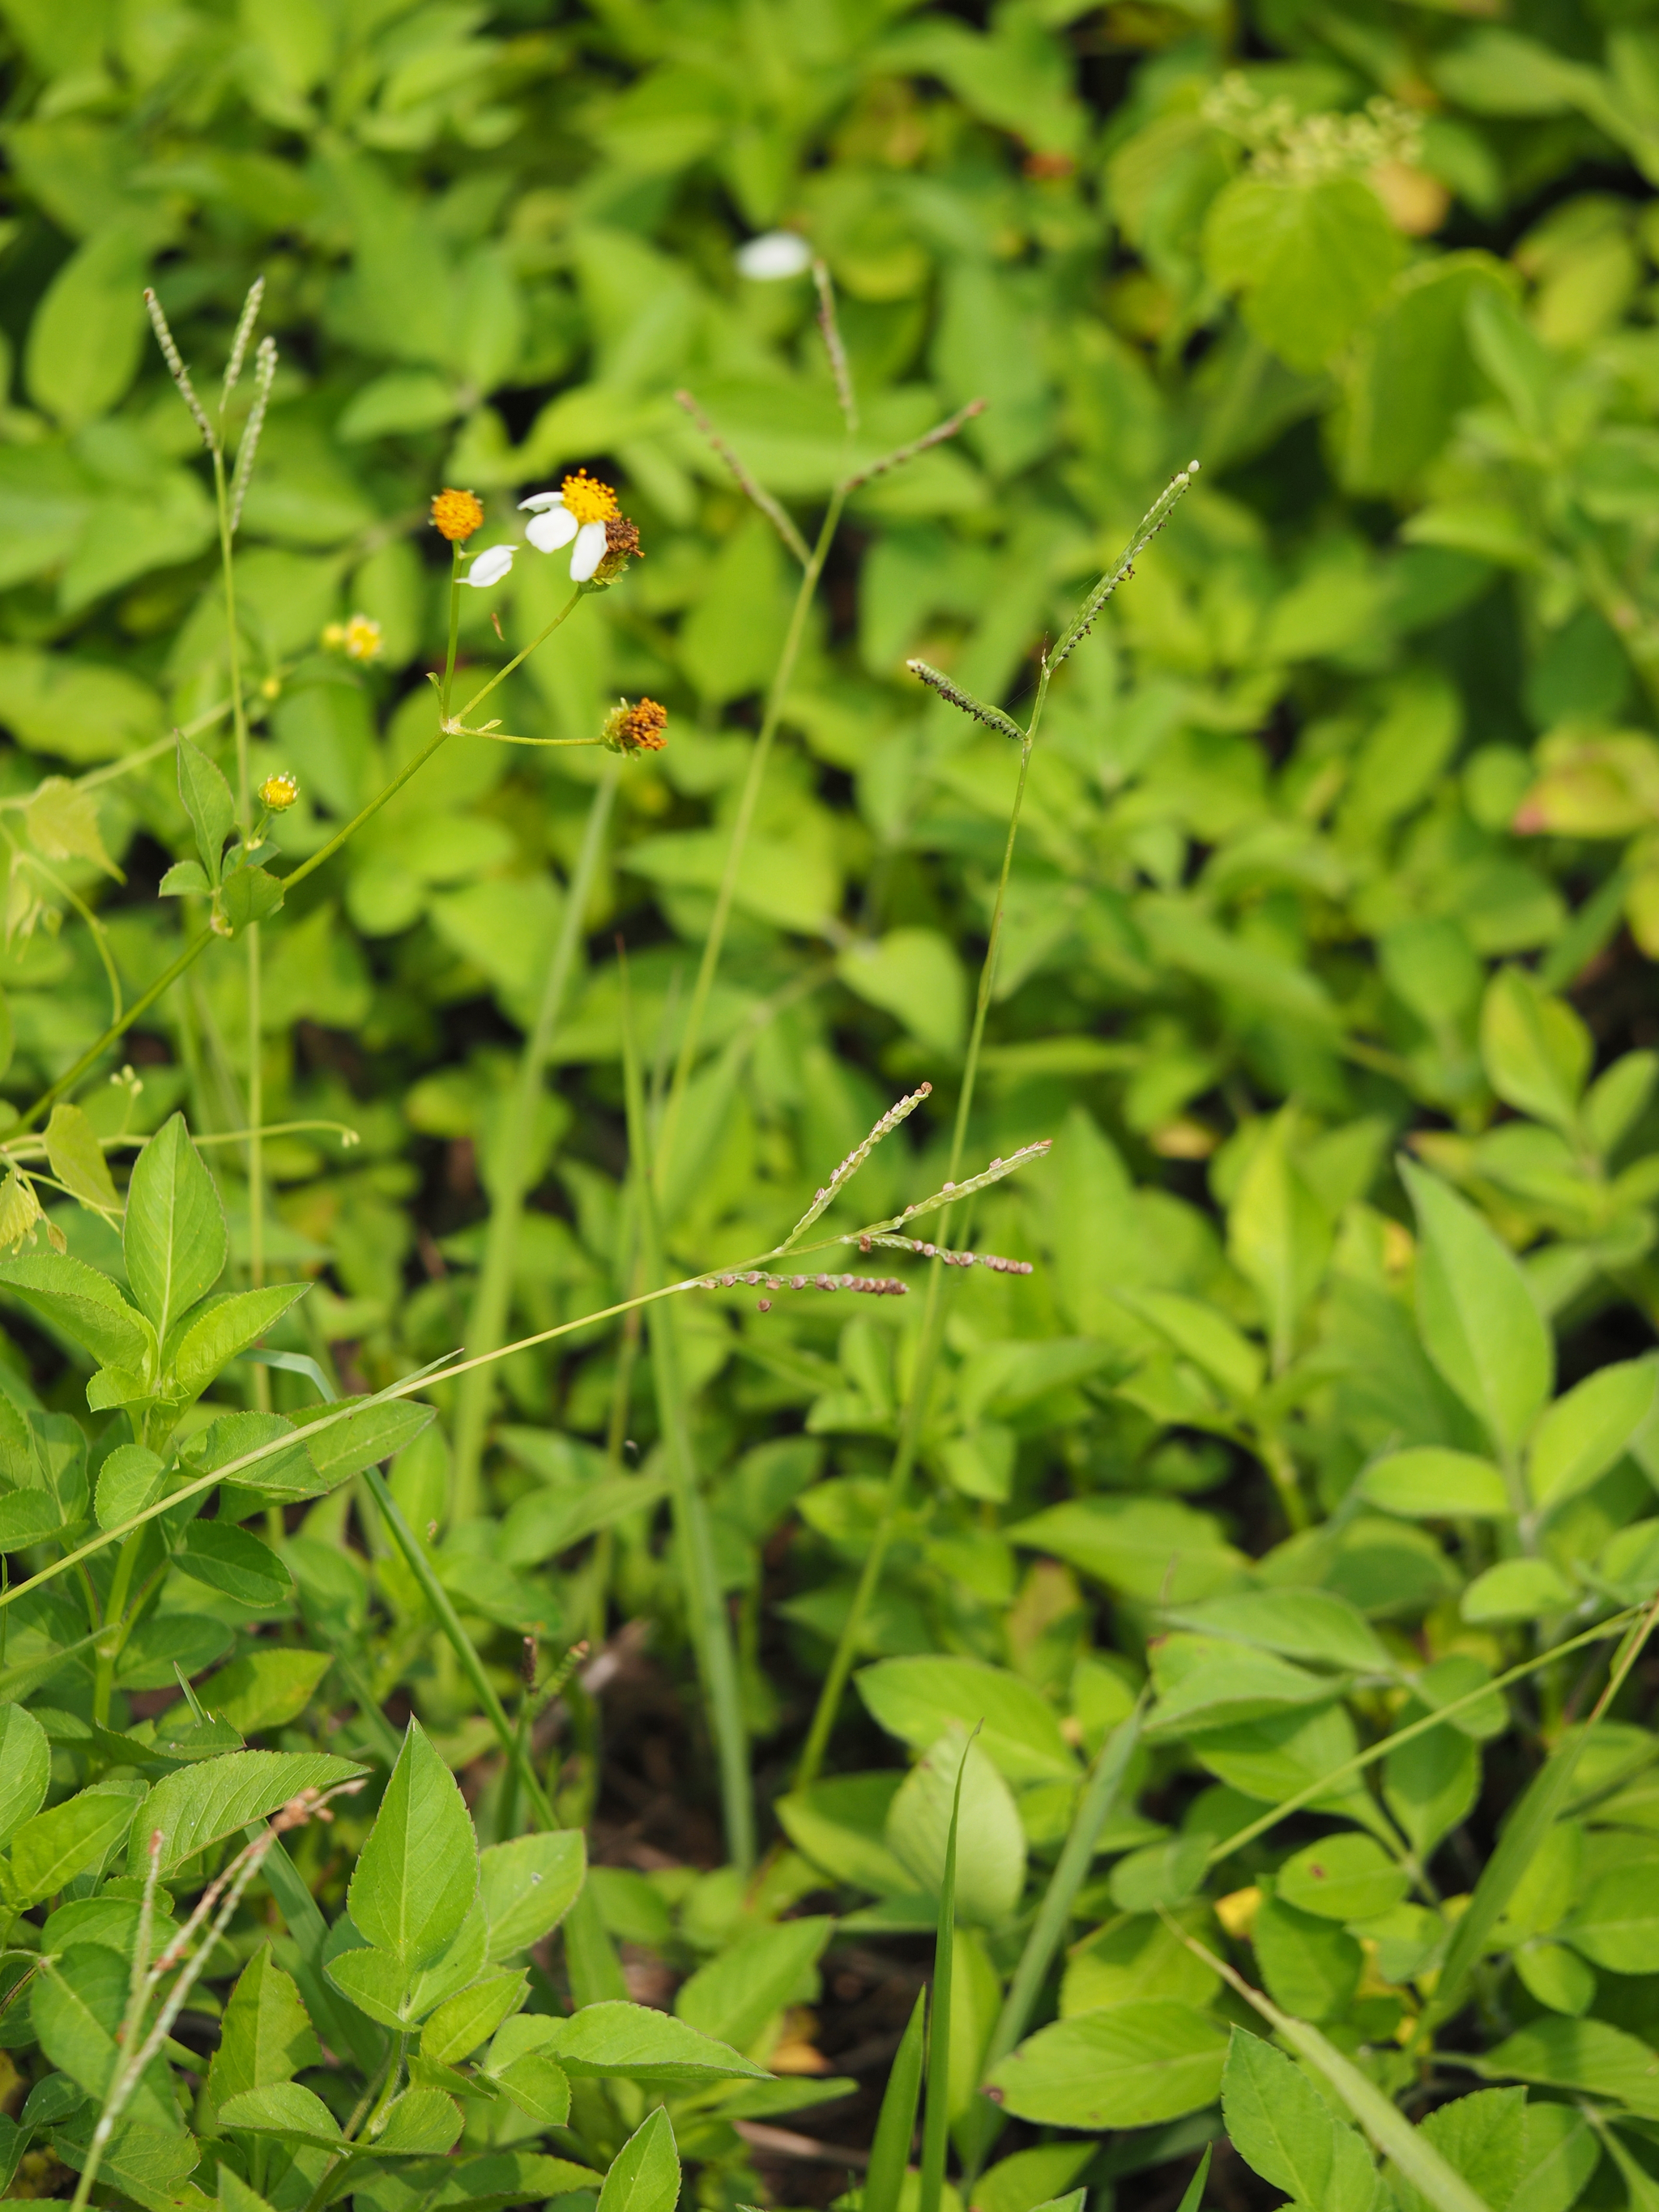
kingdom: Plantae
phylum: Tracheophyta
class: Liliopsida
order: Poales
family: Poaceae
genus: Paspalum
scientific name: Paspalum orbiculare
